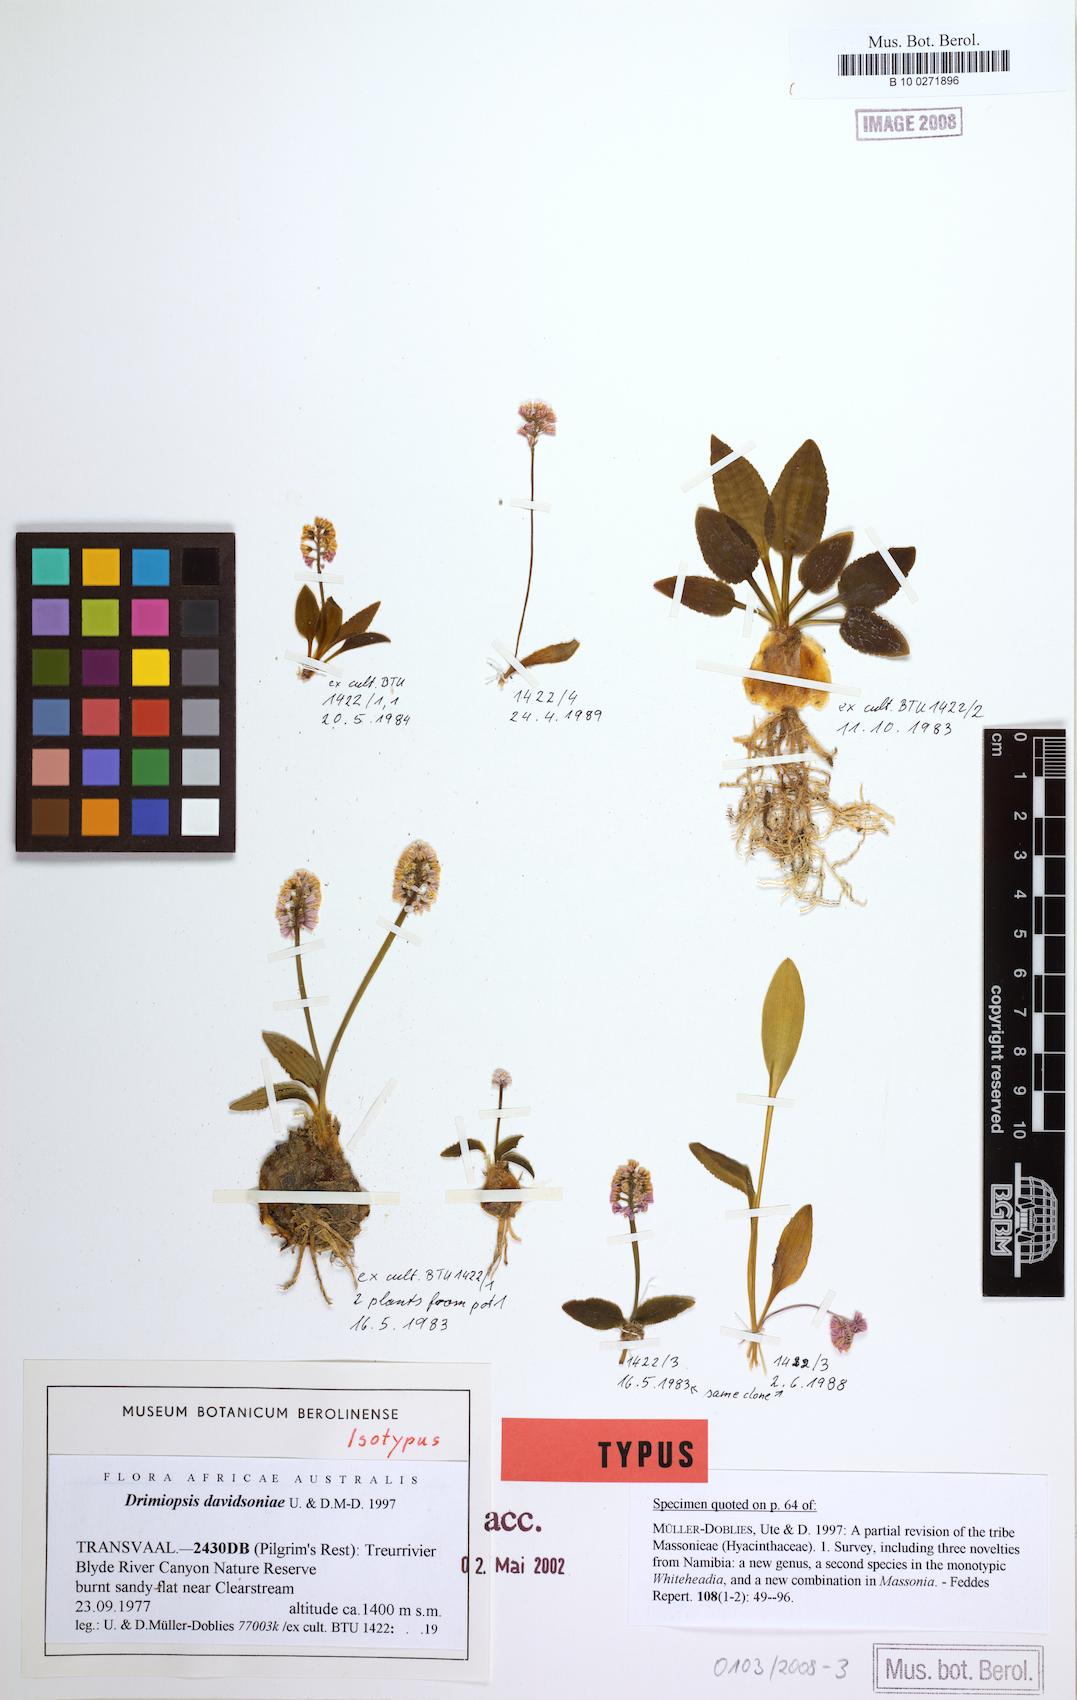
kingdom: Plantae
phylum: Tracheophyta
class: Liliopsida
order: Asparagales
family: Asparagaceae
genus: Drimiopsis
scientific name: Drimiopsis davidsoniae
